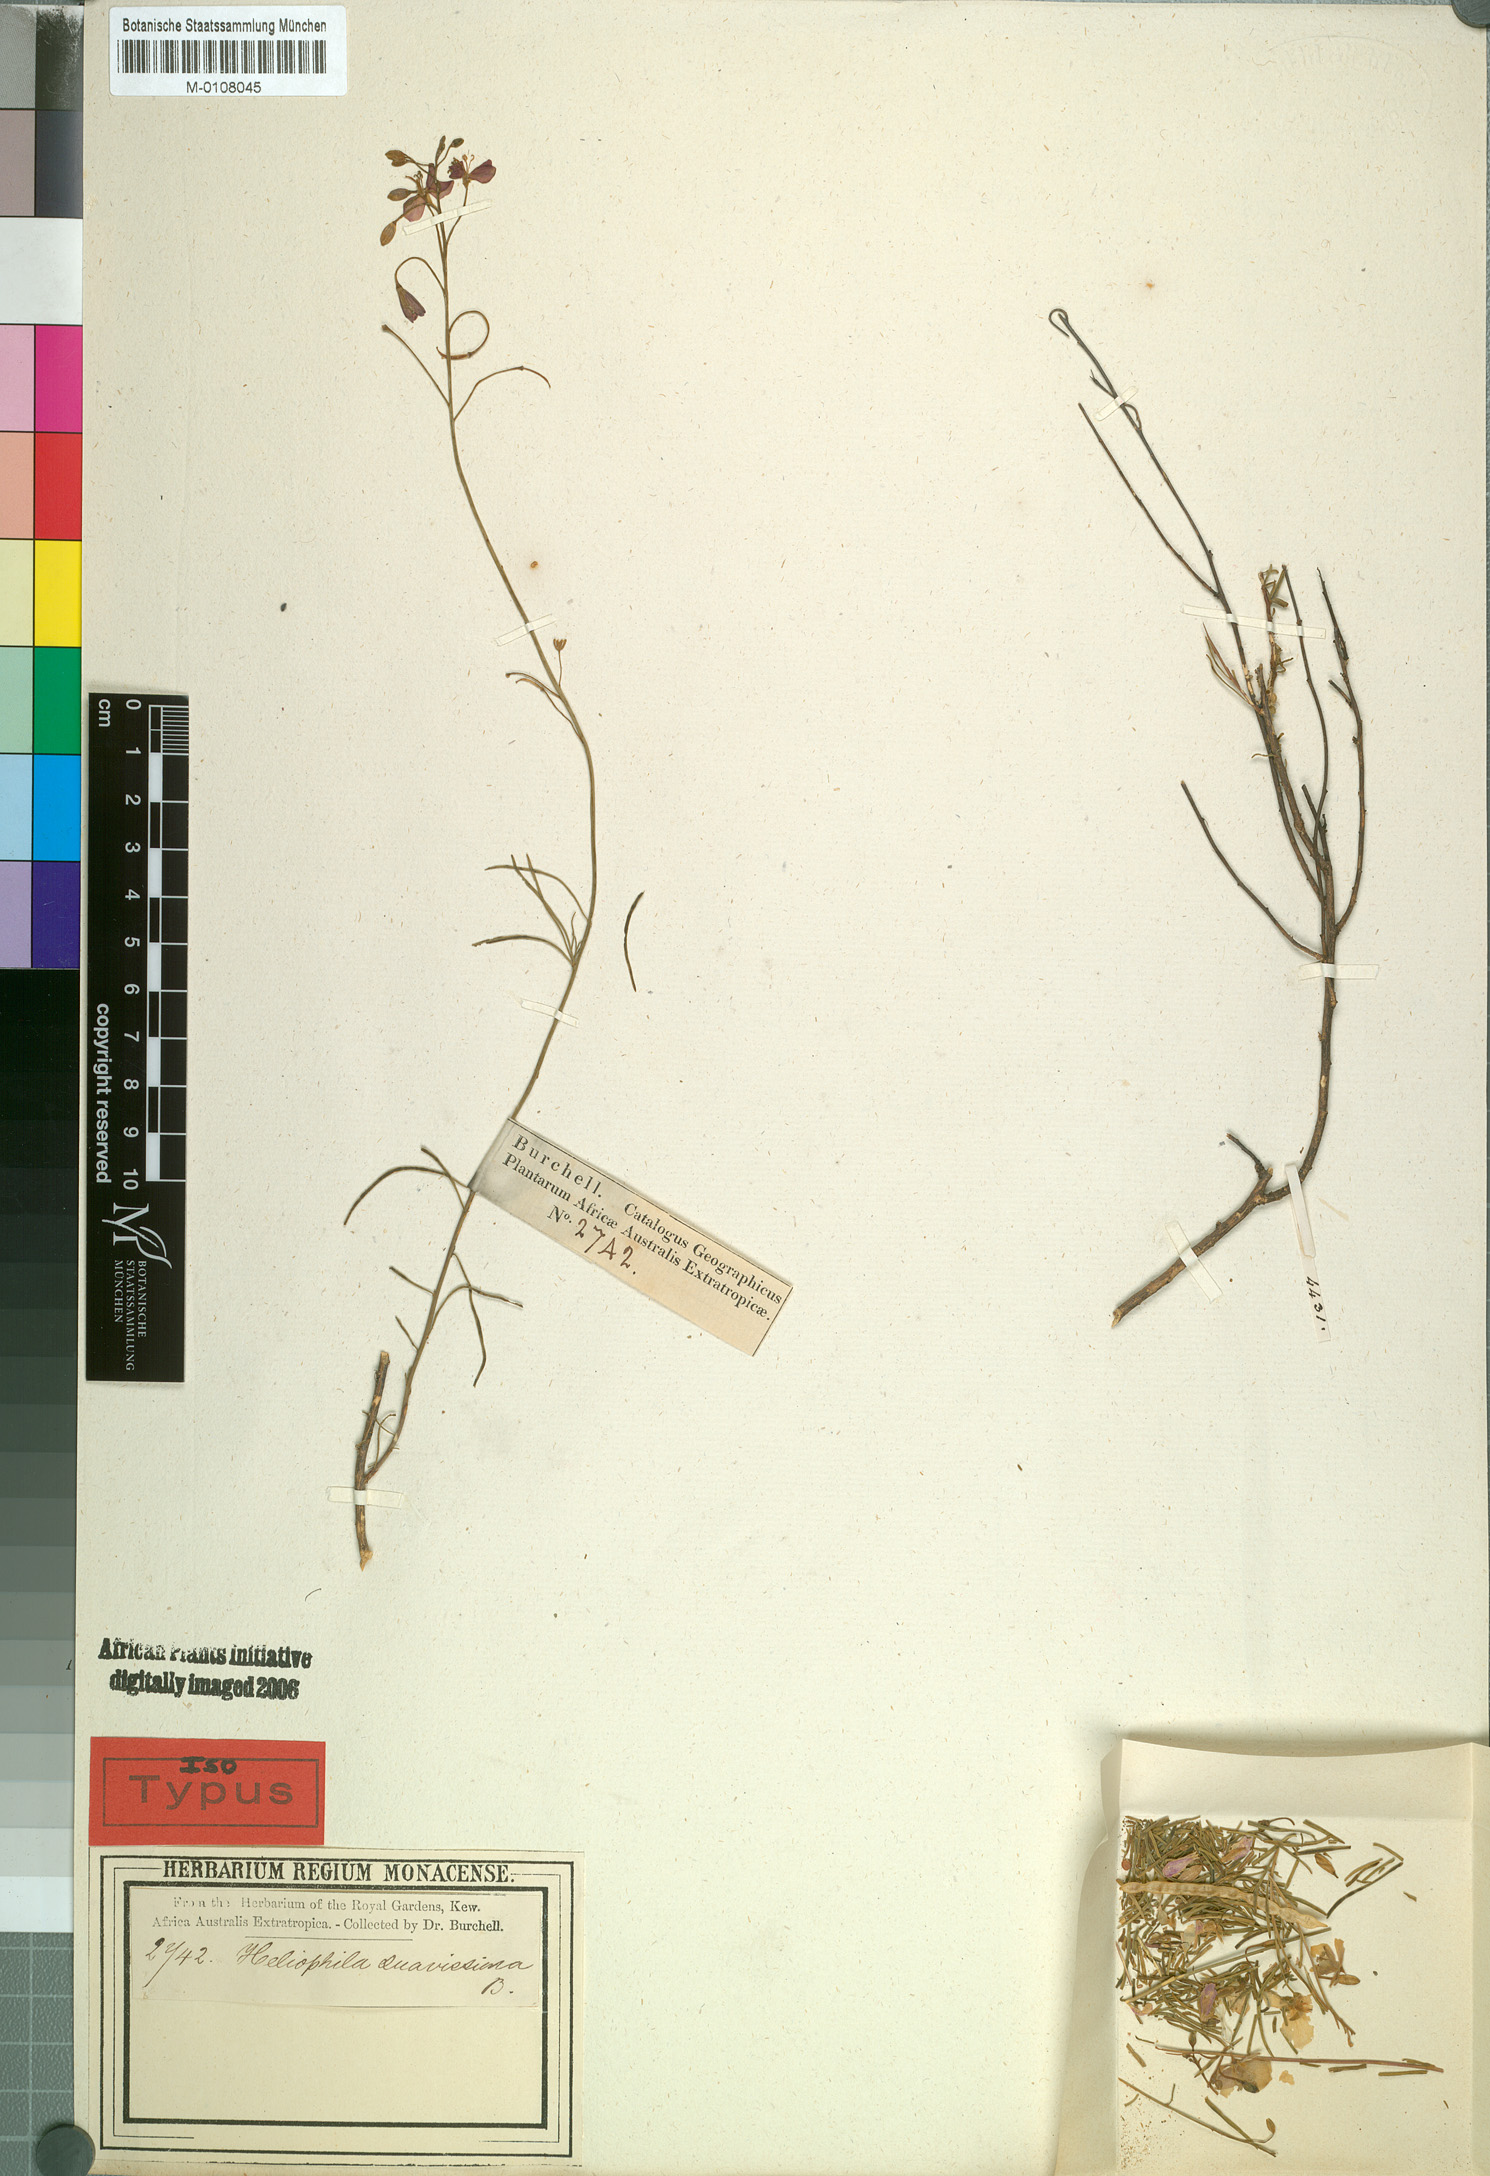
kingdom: Plantae
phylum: Tracheophyta
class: Magnoliopsida
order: Brassicales
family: Brassicaceae
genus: Heliophila
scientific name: Heliophila suavissima
